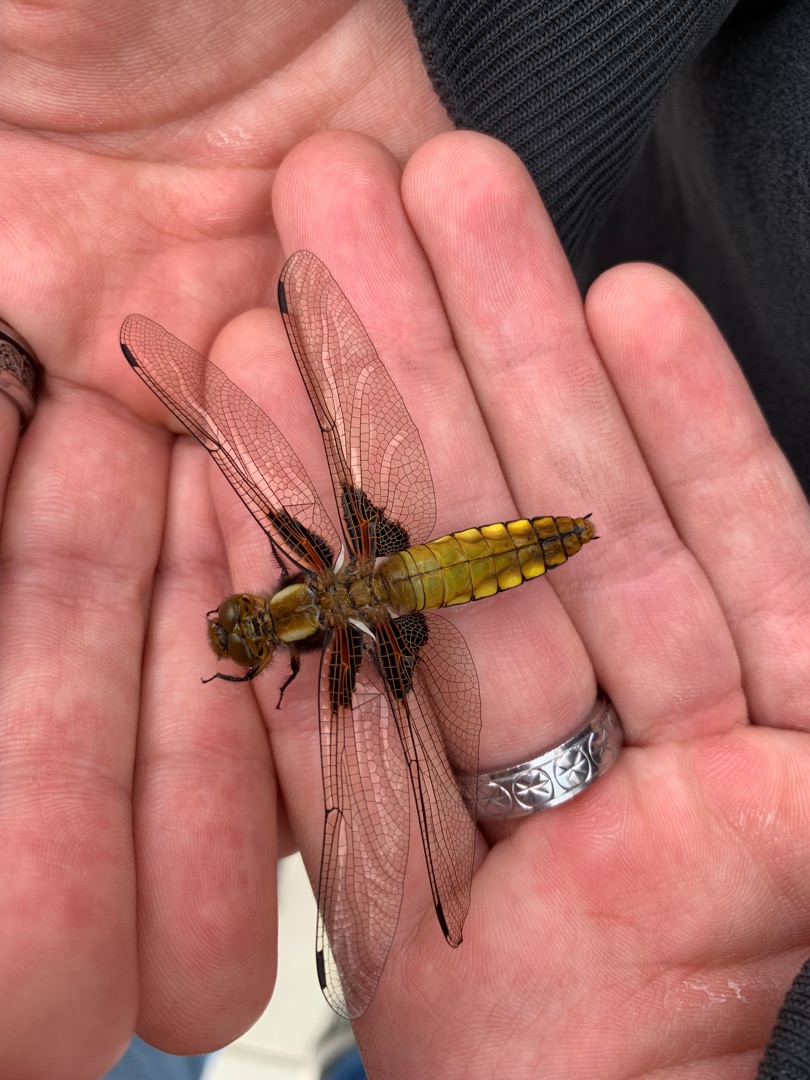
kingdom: Animalia
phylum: Arthropoda
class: Insecta
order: Odonata
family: Libellulidae
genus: Libellula
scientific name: Libellula depressa
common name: Blå libel
